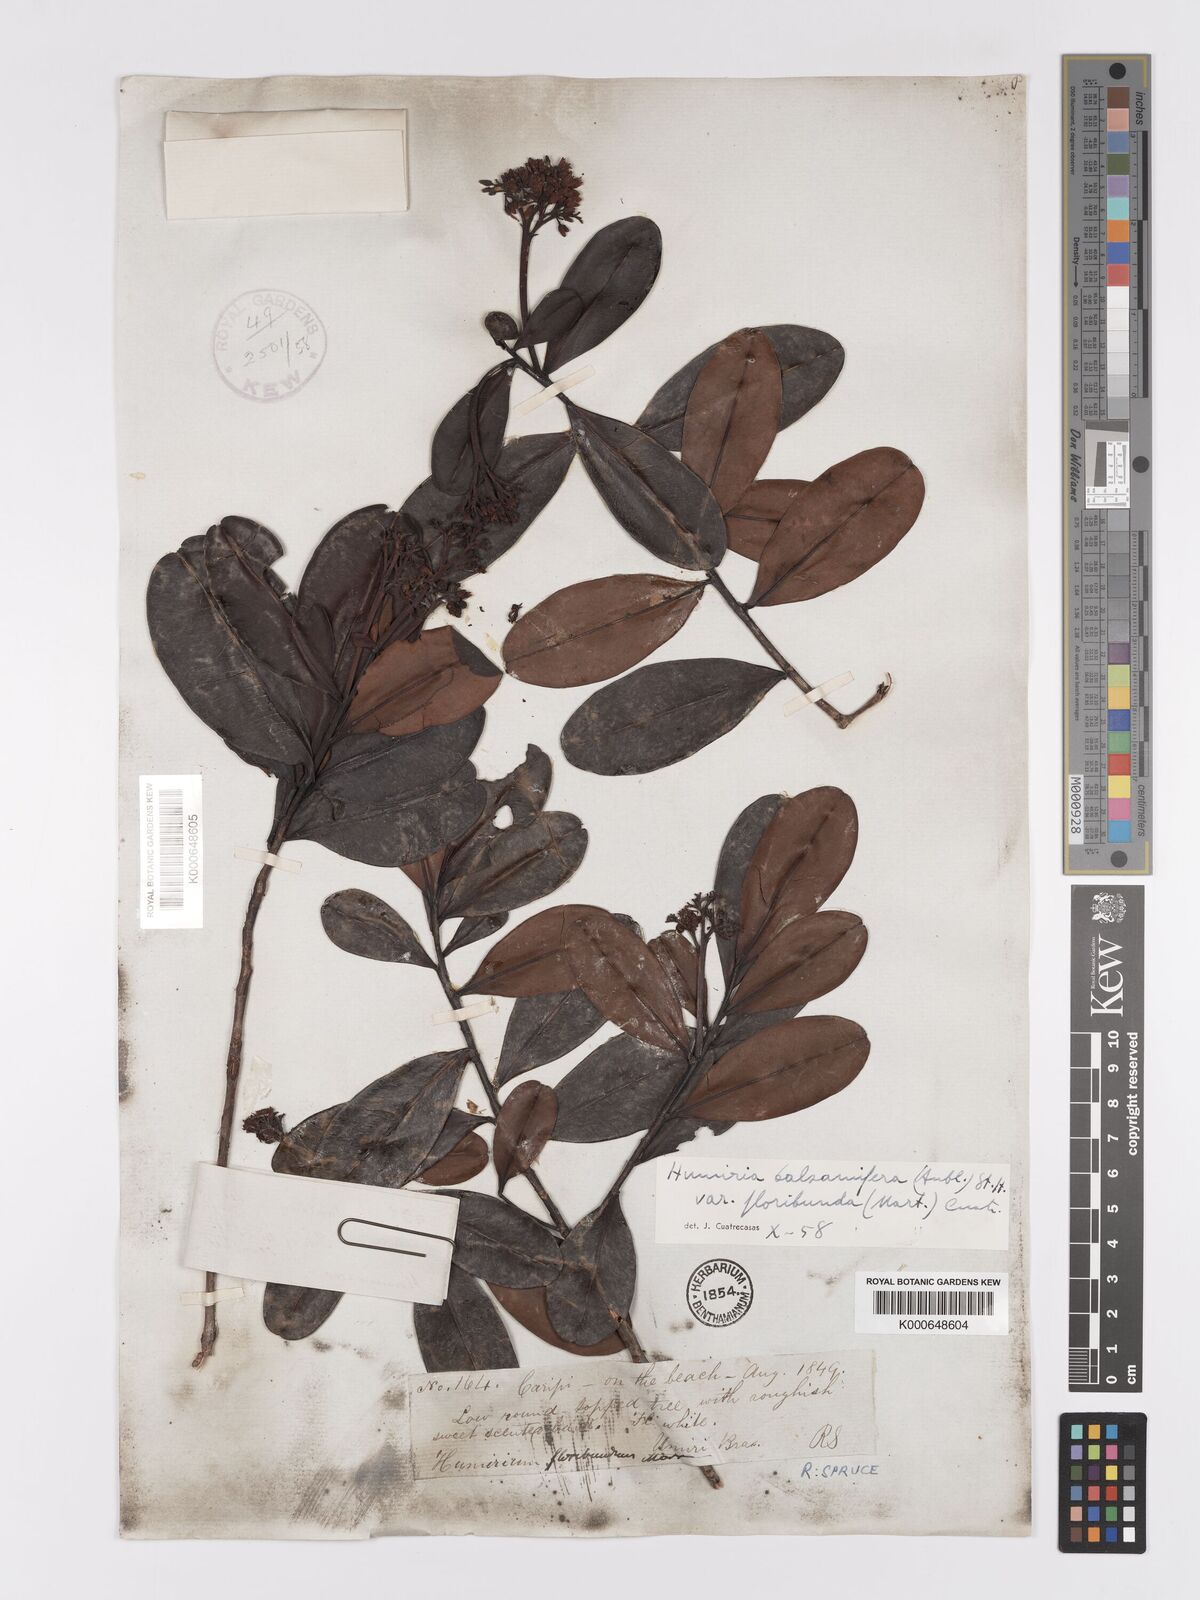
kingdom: Plantae
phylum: Tracheophyta
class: Magnoliopsida
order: Malpighiales
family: Humiriaceae
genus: Humiria
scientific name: Humiria balsamifera
